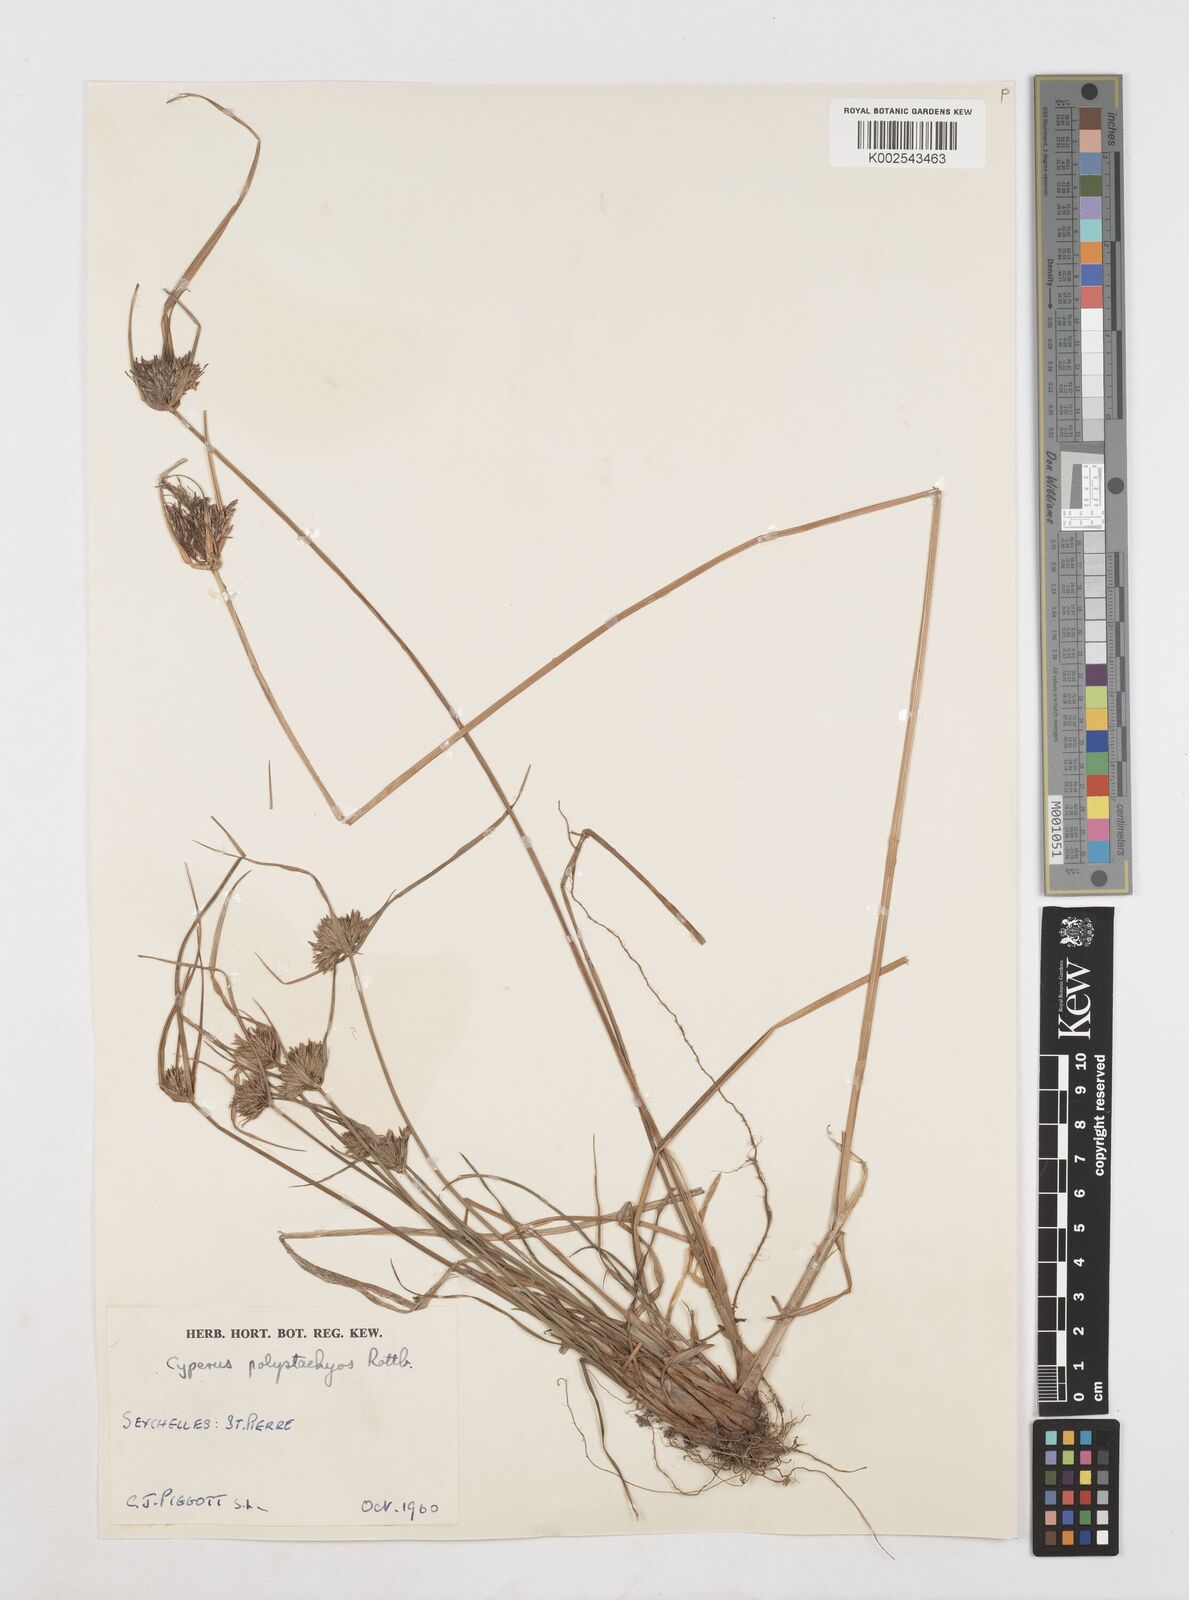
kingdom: Plantae
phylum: Tracheophyta
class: Liliopsida
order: Poales
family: Cyperaceae
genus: Cyperus
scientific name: Cyperus polystachyos
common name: Bunchy flat sedge
